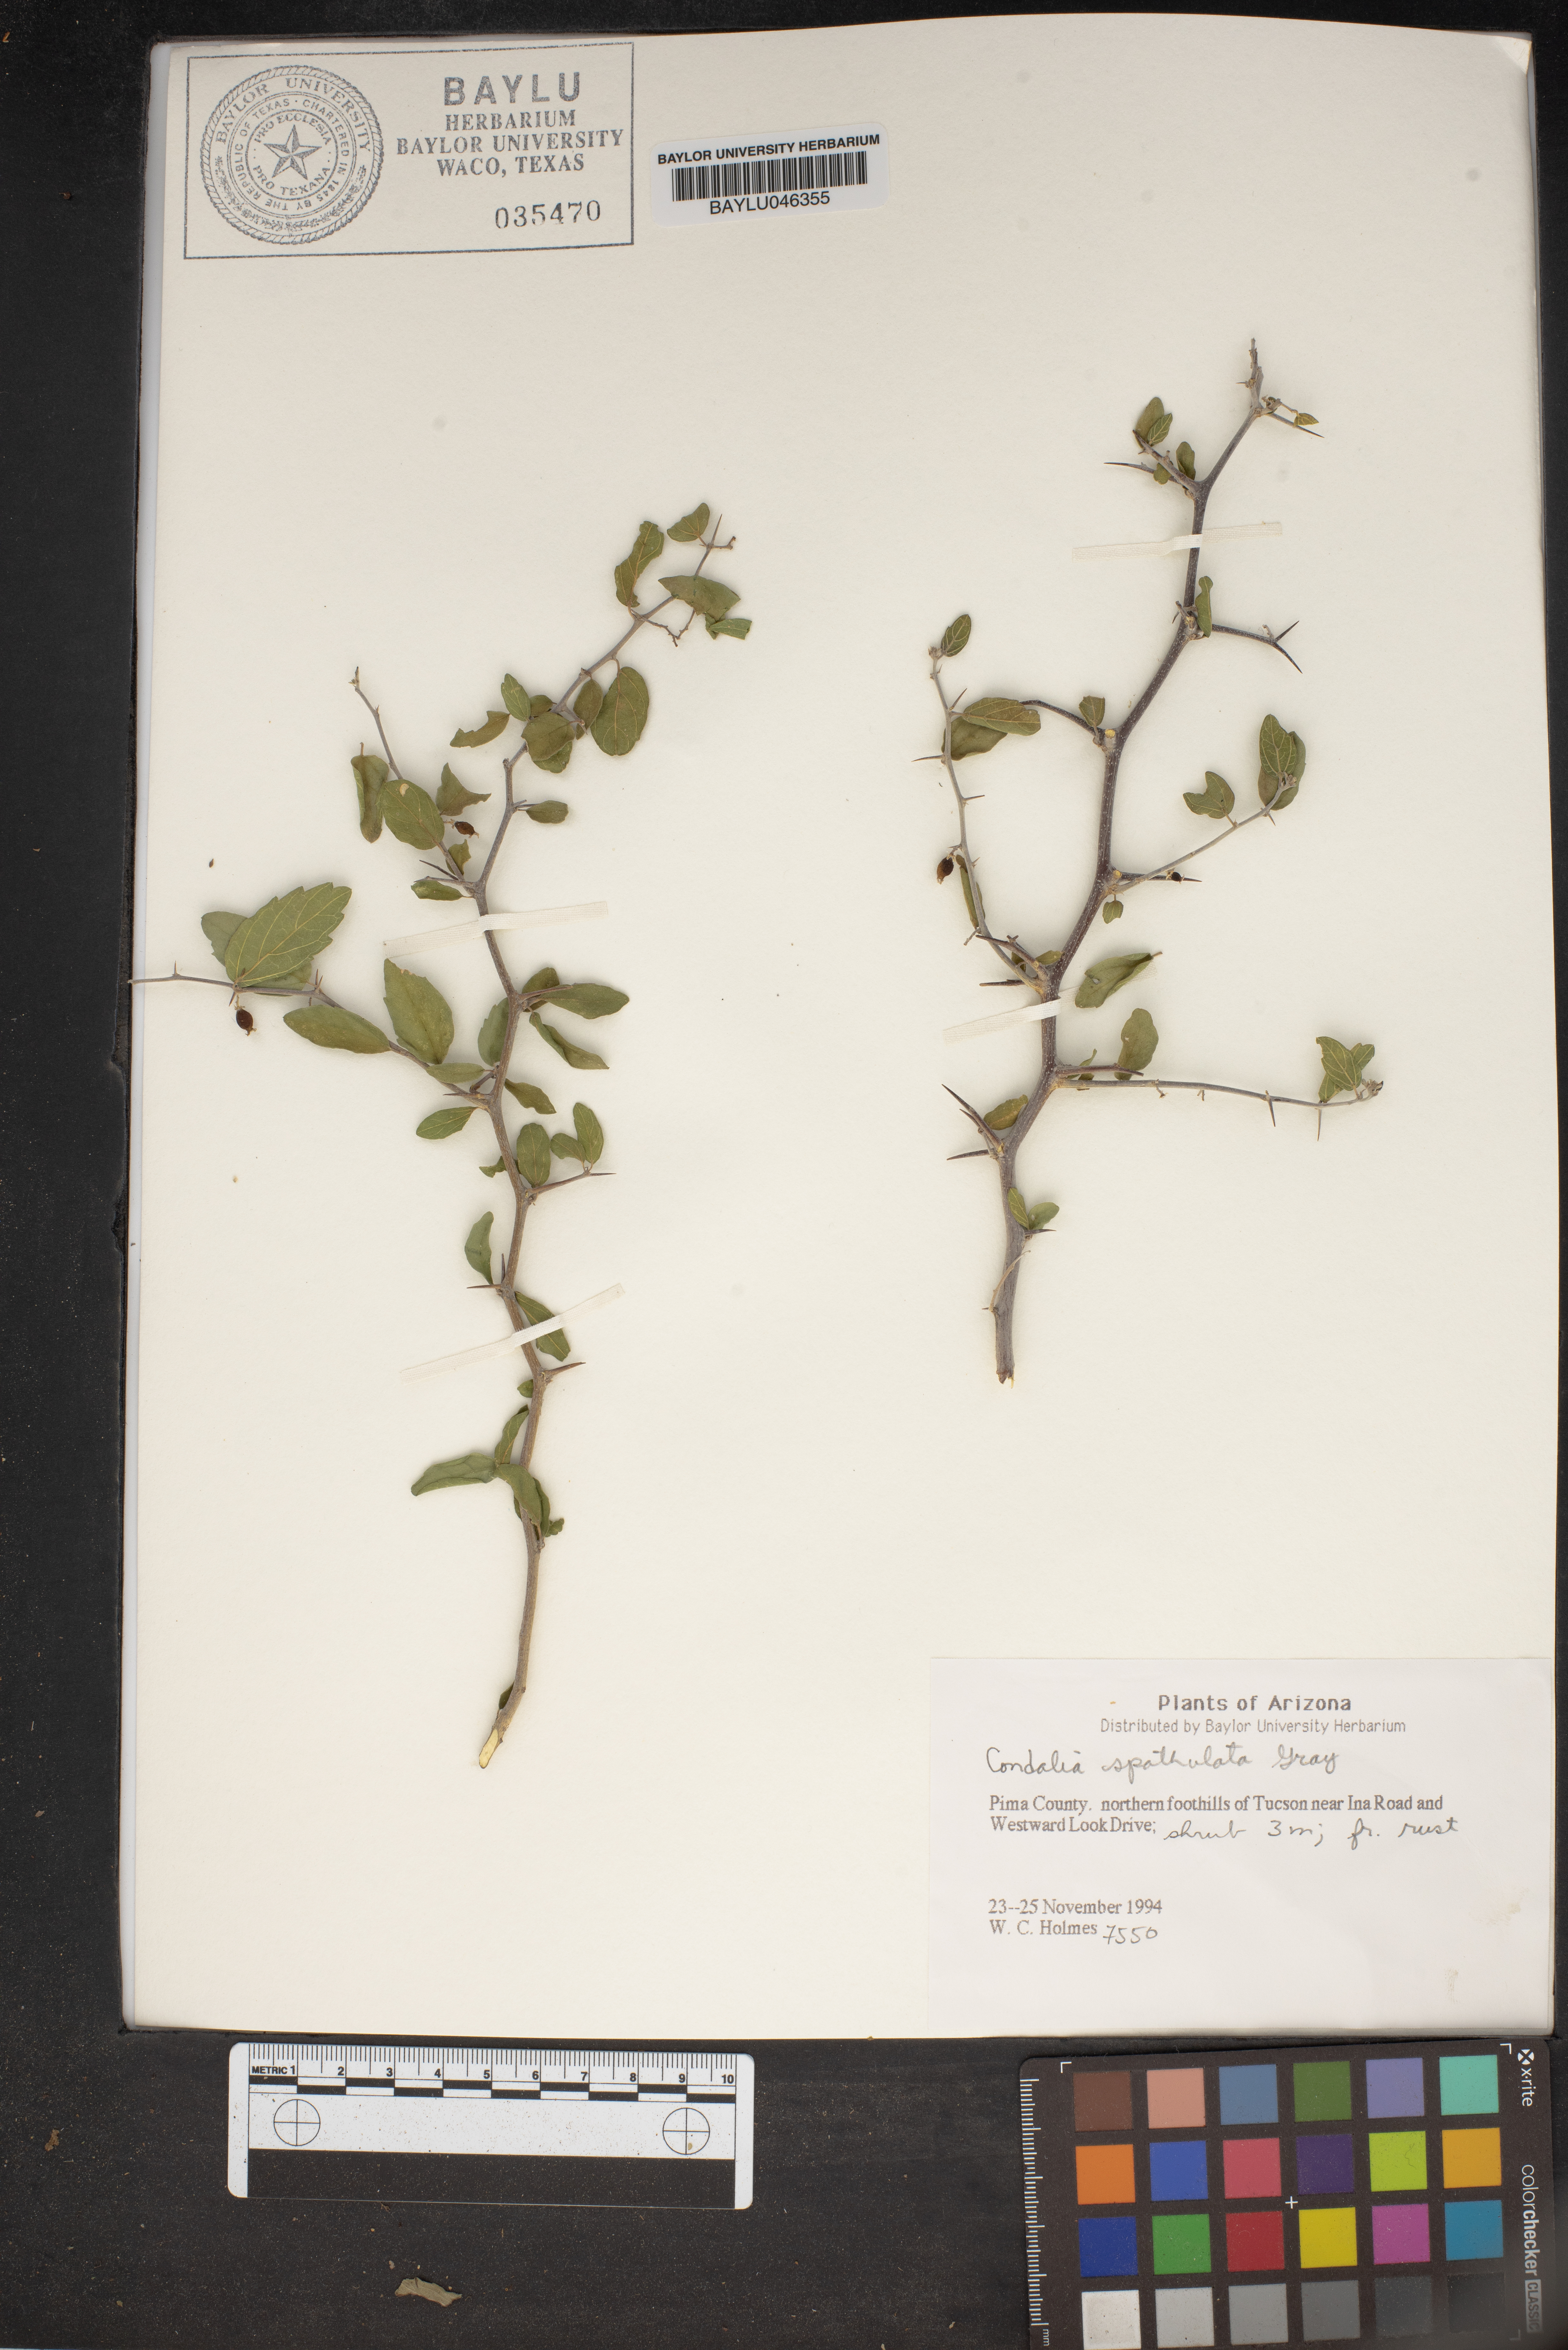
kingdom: Plantae
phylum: Tracheophyta
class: Magnoliopsida
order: Rosales
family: Rhamnaceae
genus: Condalia
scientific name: Condalia spathulata
